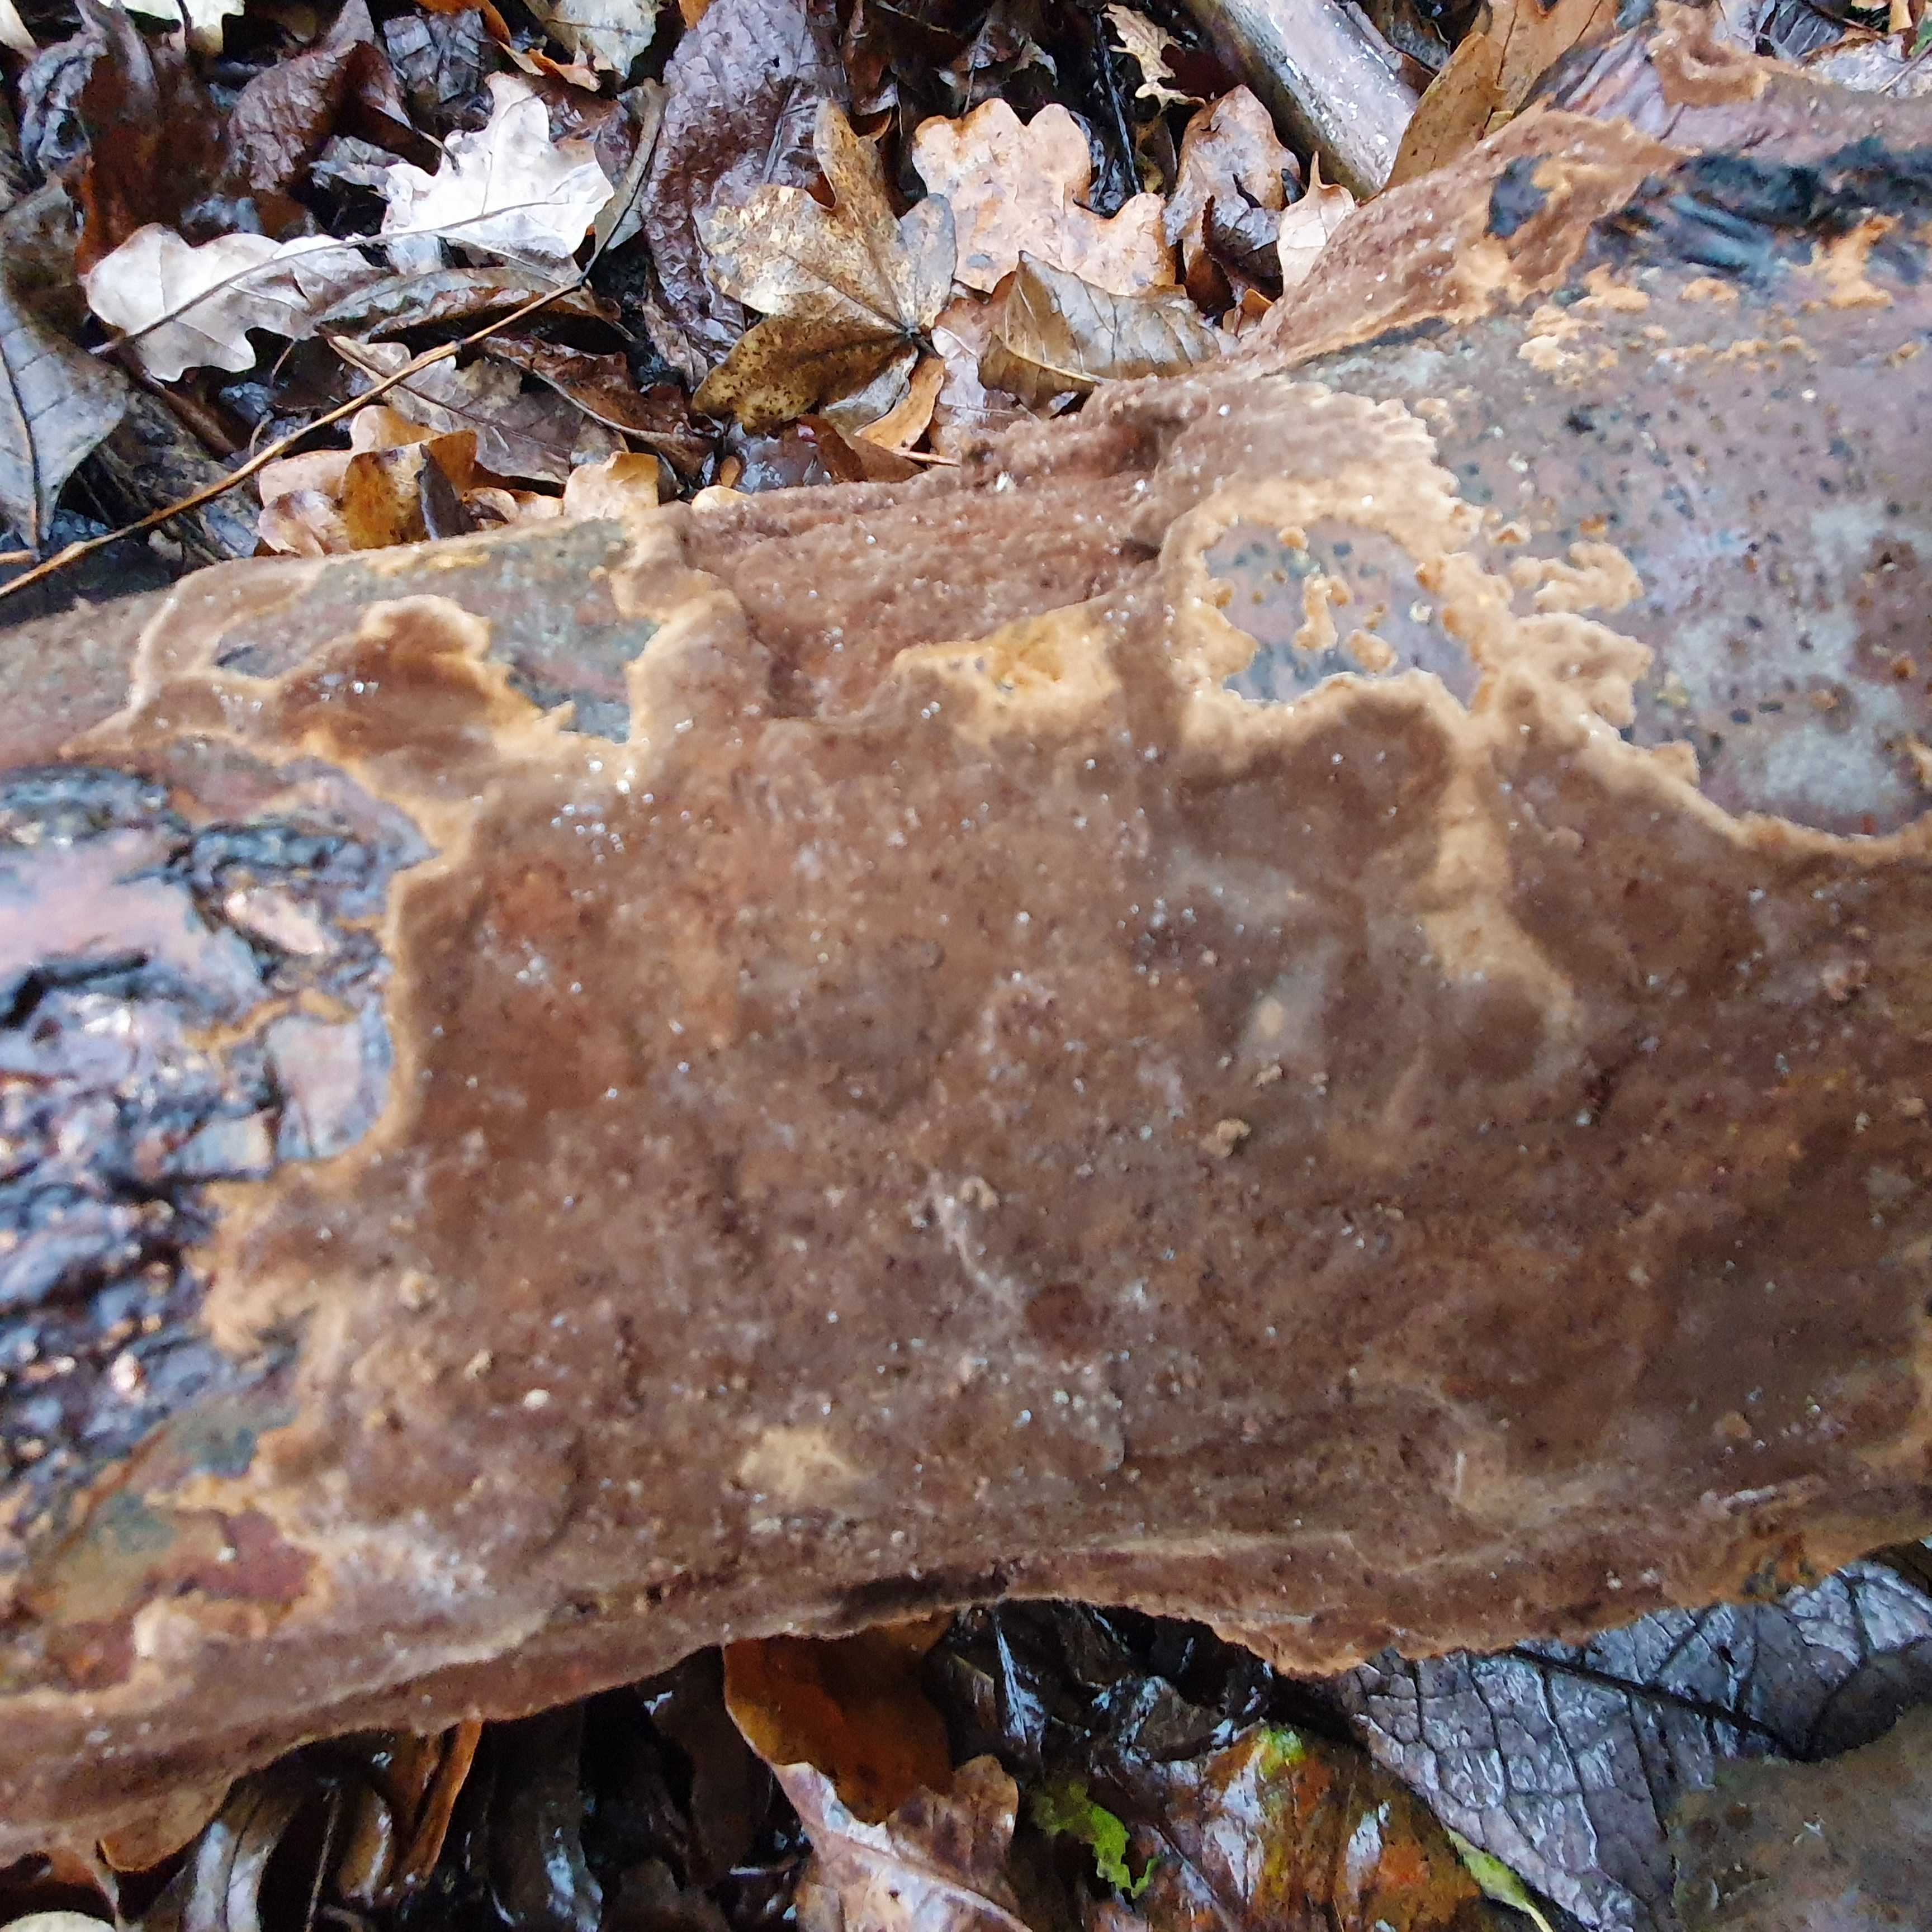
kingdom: Fungi
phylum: Basidiomycota
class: Agaricomycetes
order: Hymenochaetales
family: Hymenochaetaceae
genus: Fuscoporia
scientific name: Fuscoporia
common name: Ildporesvamp
